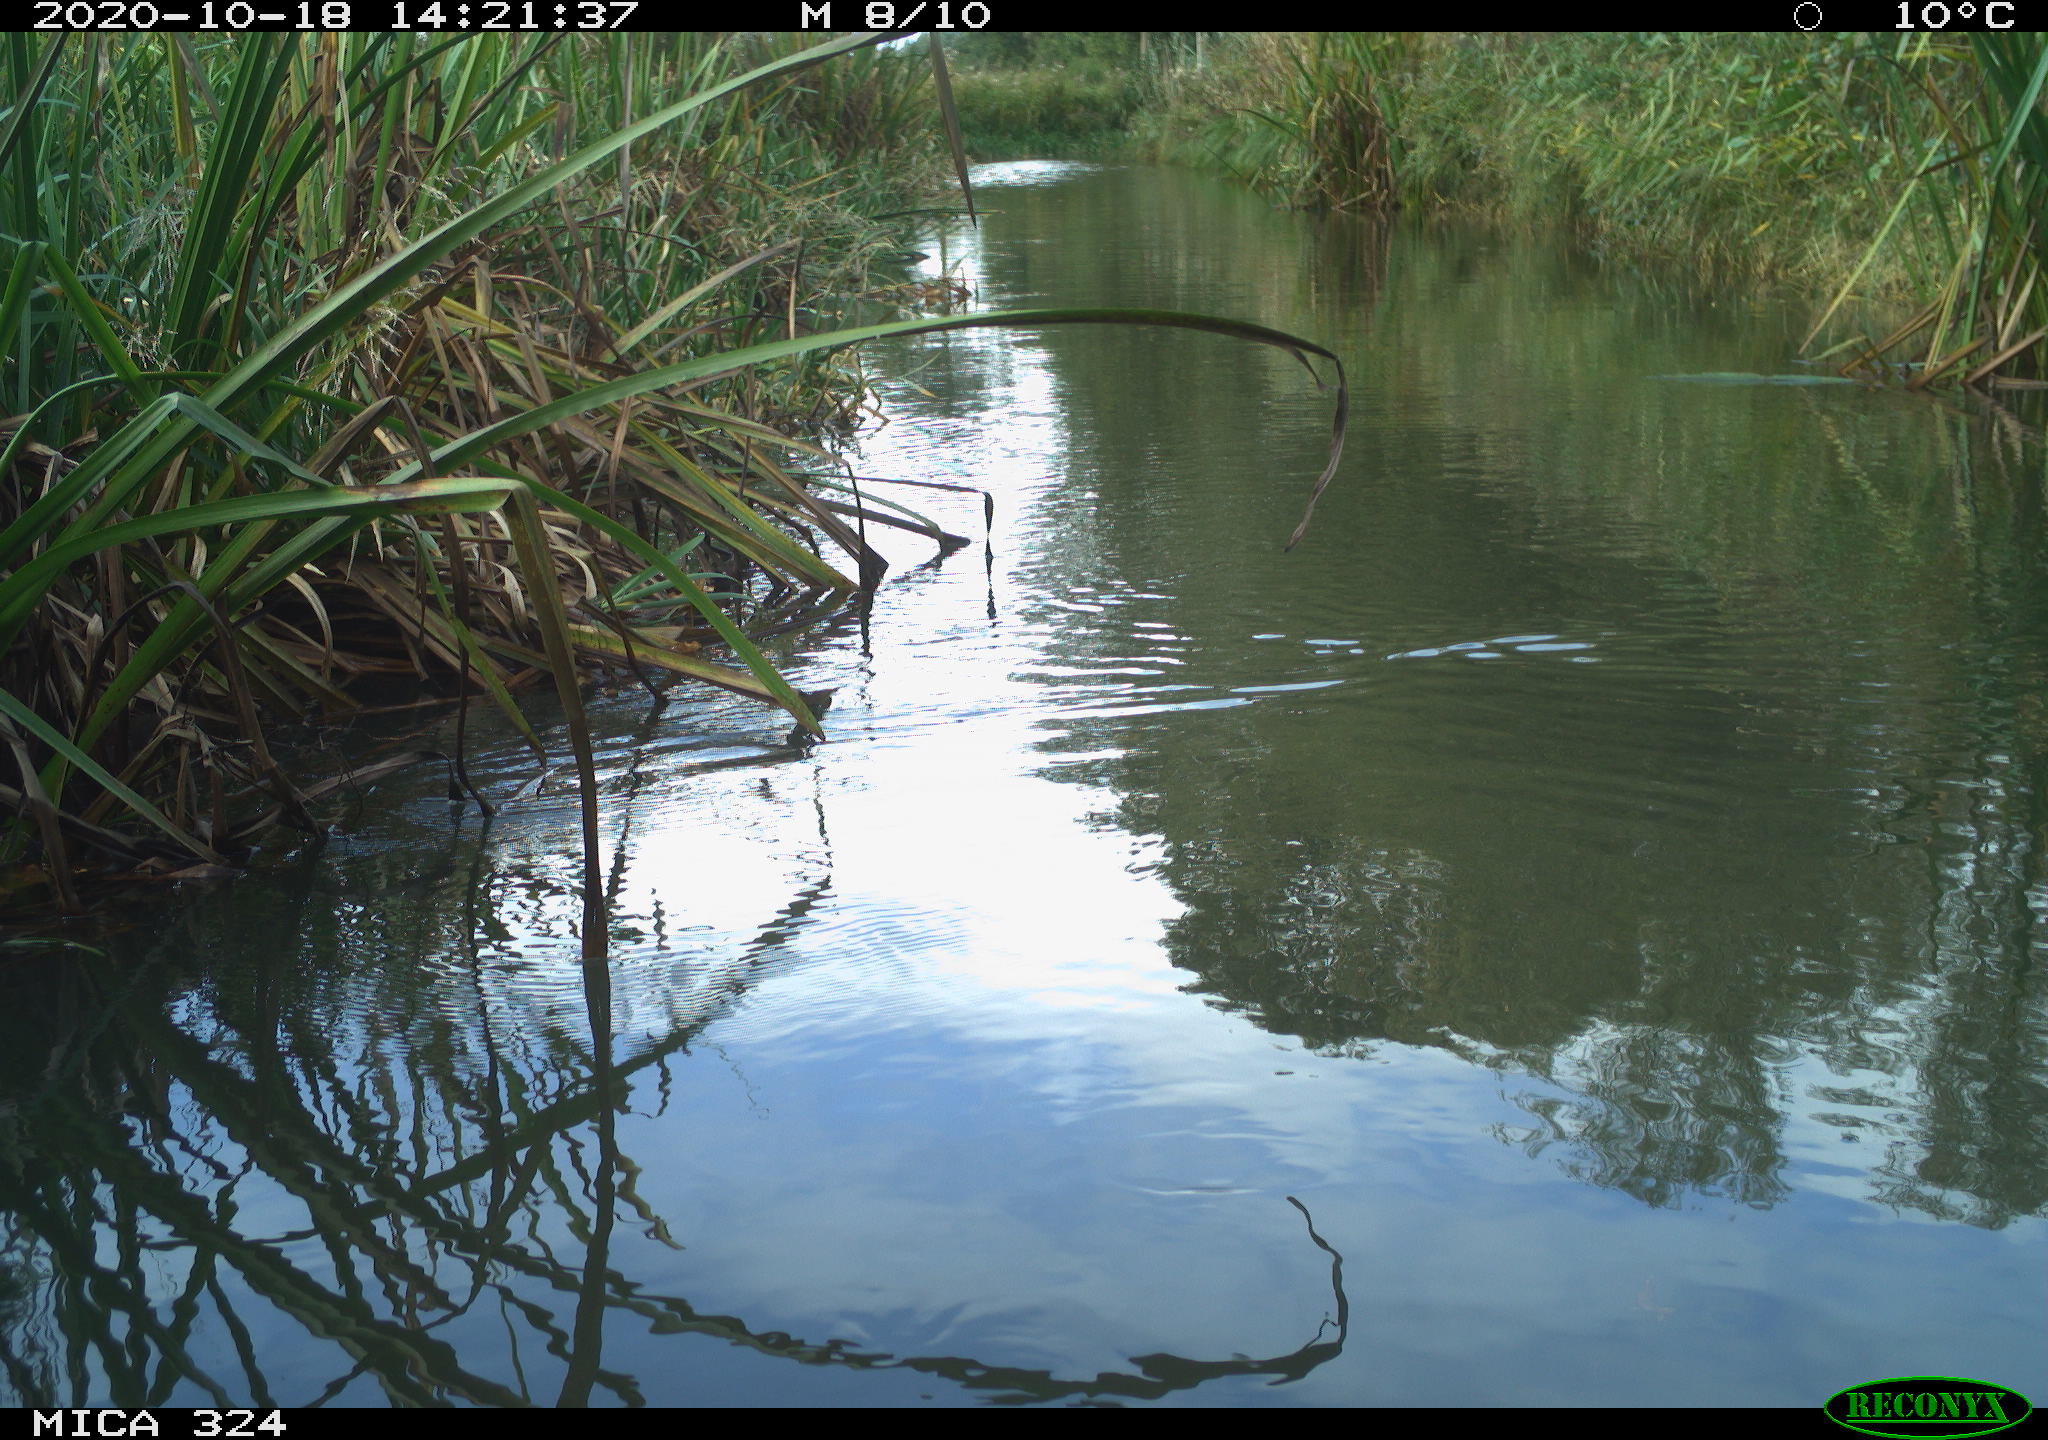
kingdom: Animalia
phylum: Chordata
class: Aves
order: Gruiformes
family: Rallidae
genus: Gallinula
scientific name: Gallinula chloropus
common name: Common moorhen
